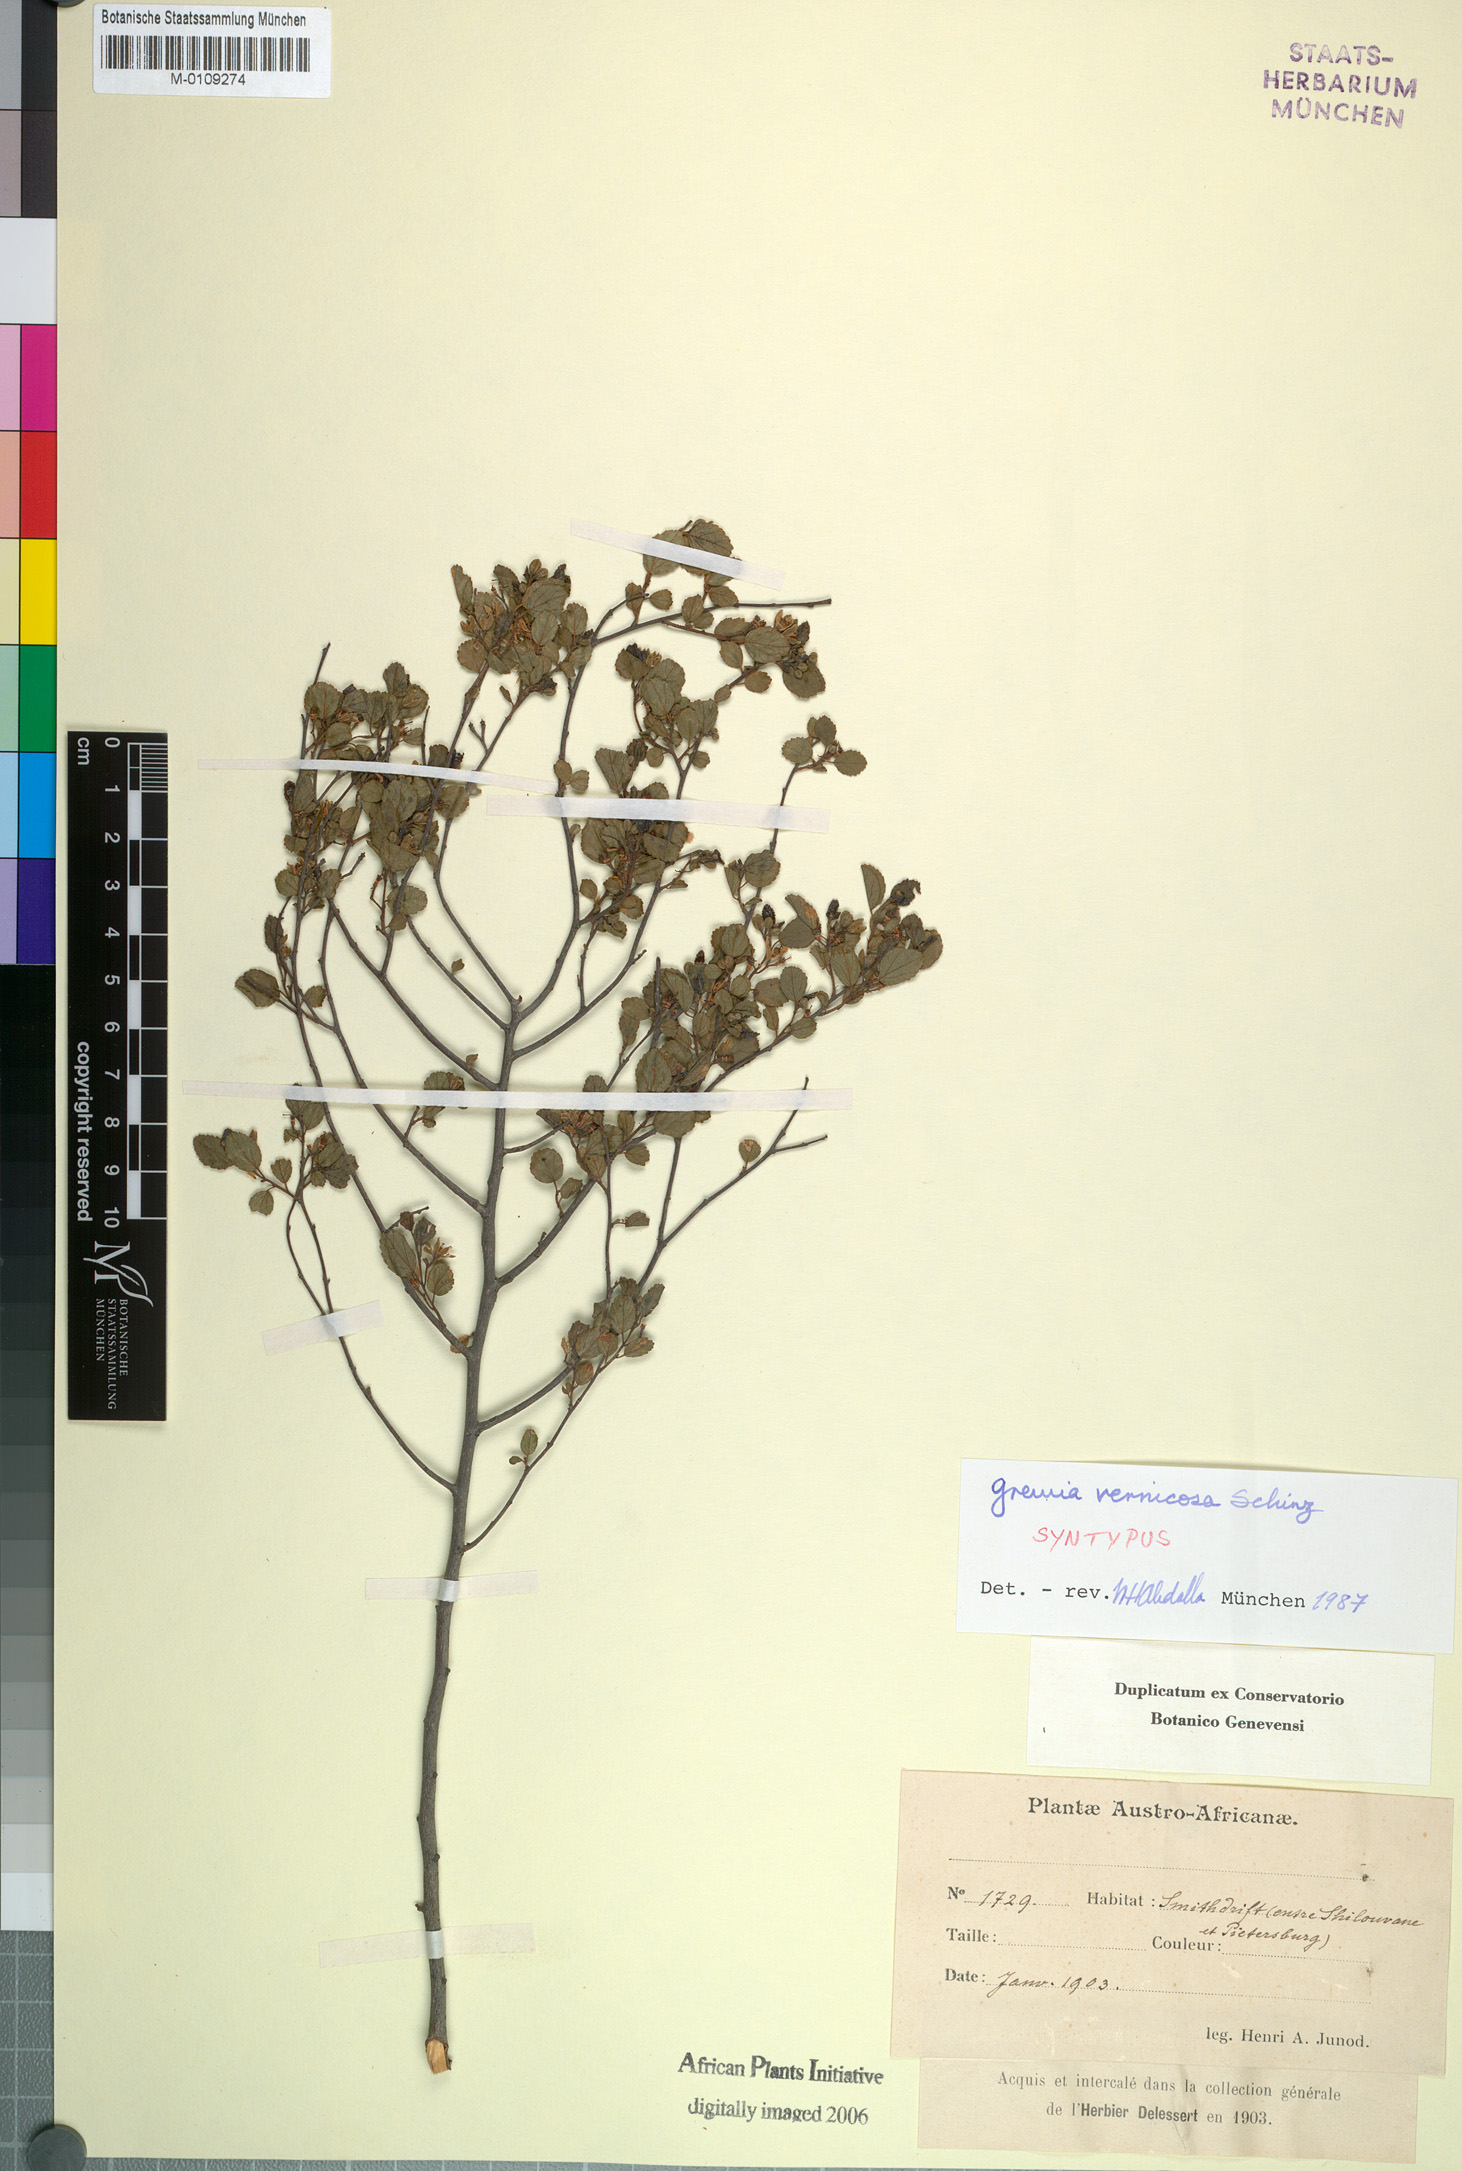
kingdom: Plantae
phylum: Tracheophyta
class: Magnoliopsida
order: Malvales
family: Malvaceae
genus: Grewia
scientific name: Grewia vernicosa
